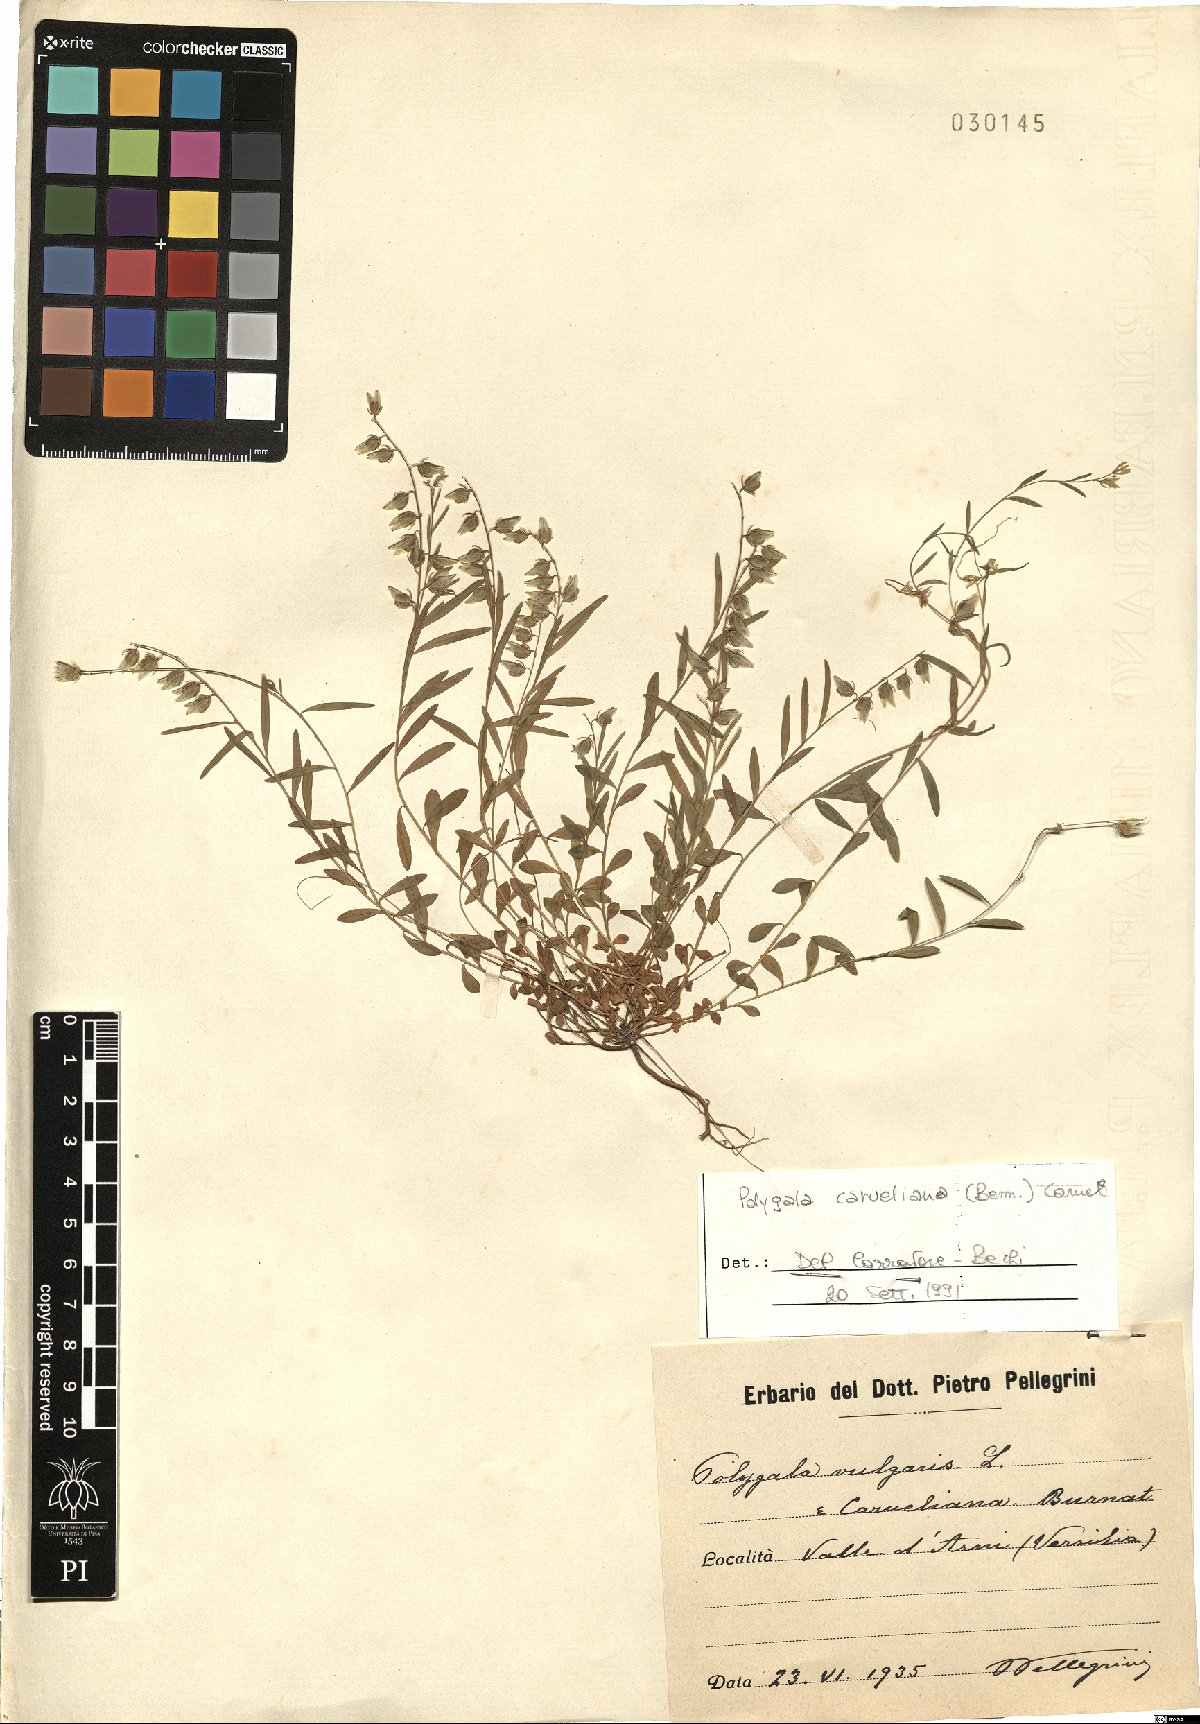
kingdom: Plantae
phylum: Tracheophyta
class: Magnoliopsida
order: Fabales
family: Polygalaceae
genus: Polygala
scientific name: Polygala carueliana
